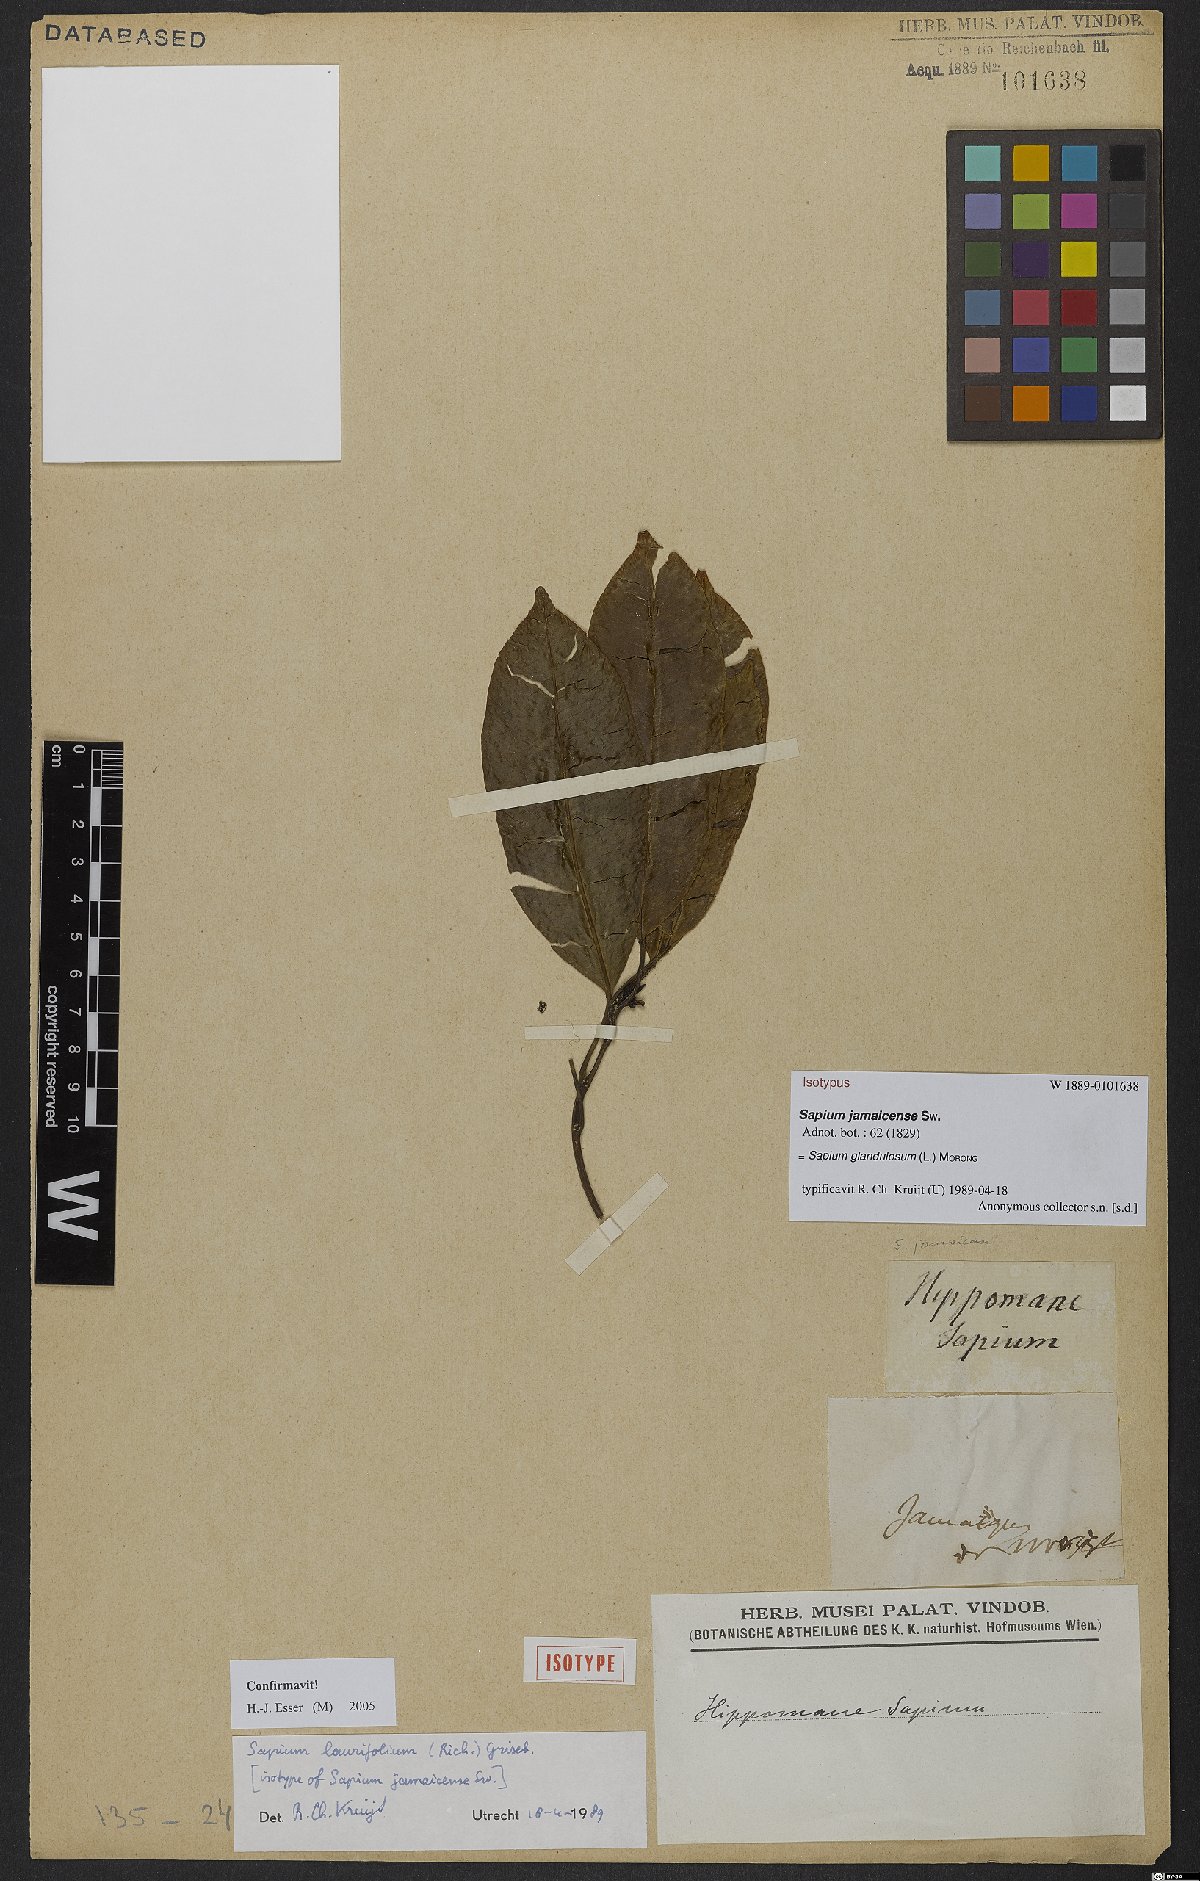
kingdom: Plantae
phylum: Tracheophyta
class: Magnoliopsida
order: Malpighiales
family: Euphorbiaceae
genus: Sapium
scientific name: Sapium glandulosum
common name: Milktree
